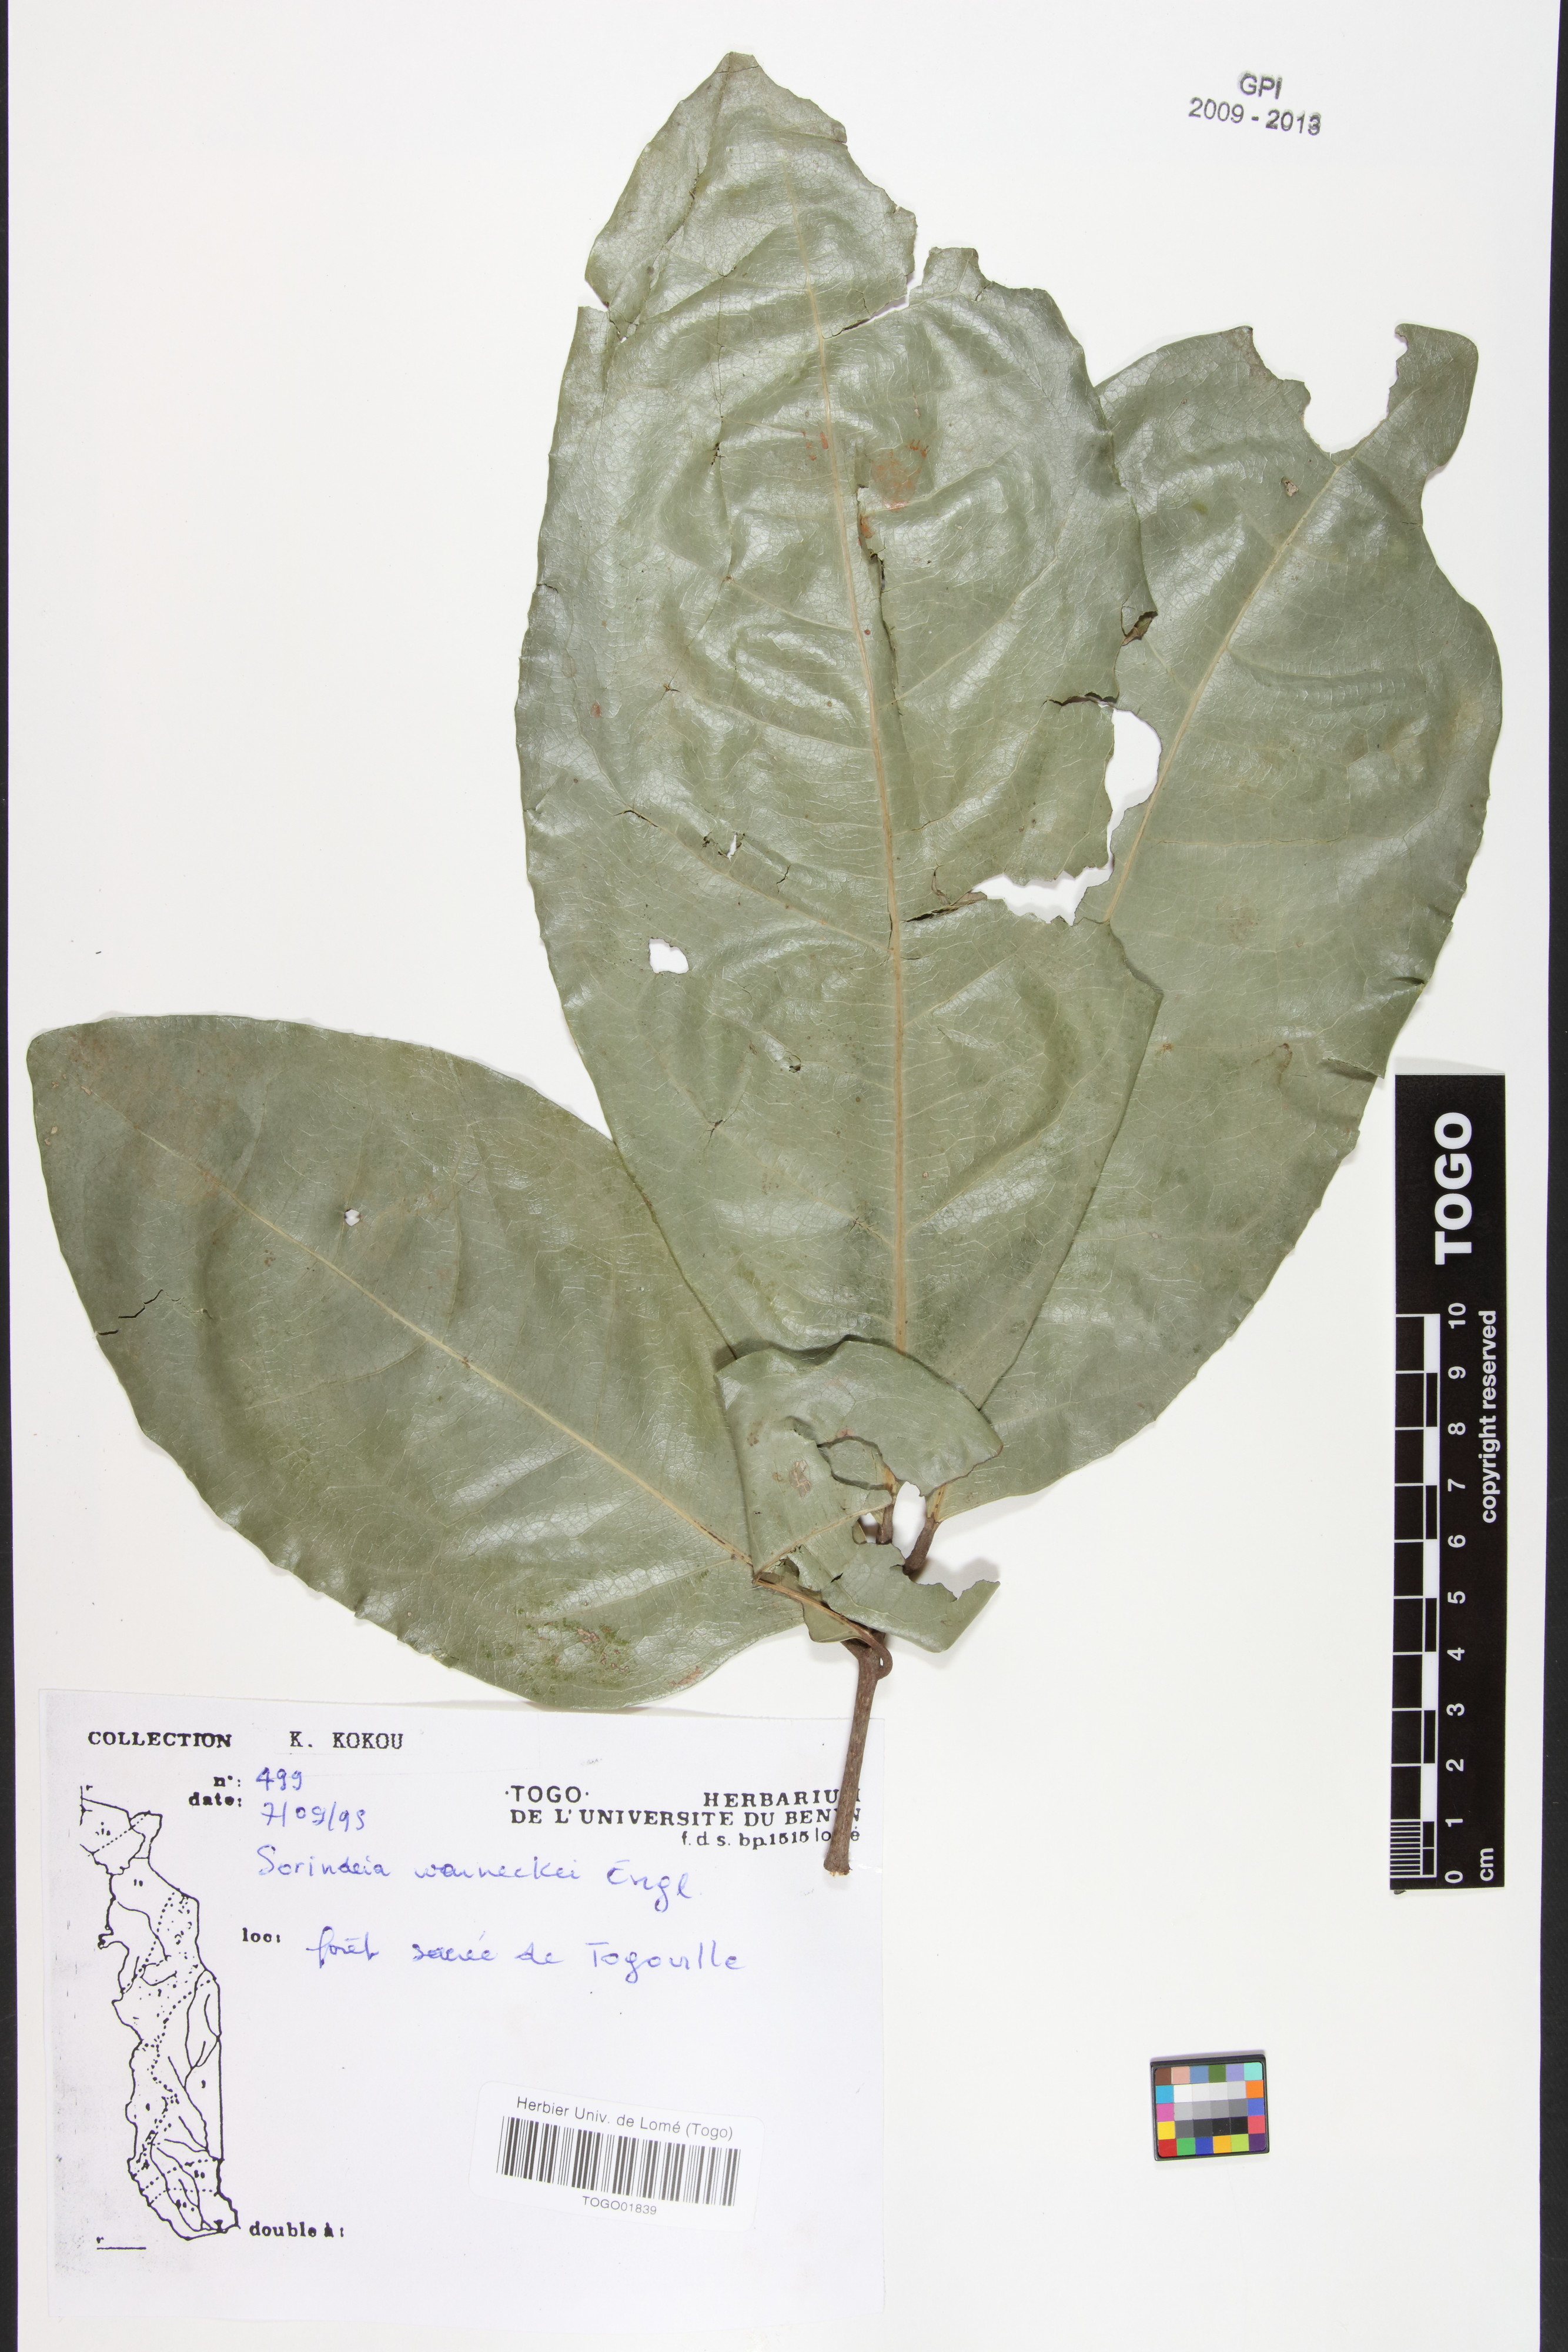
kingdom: Plantae
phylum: Tracheophyta
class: Magnoliopsida
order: Sapindales
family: Anacardiaceae
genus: Sorindeia
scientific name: Sorindeia grandifolia
